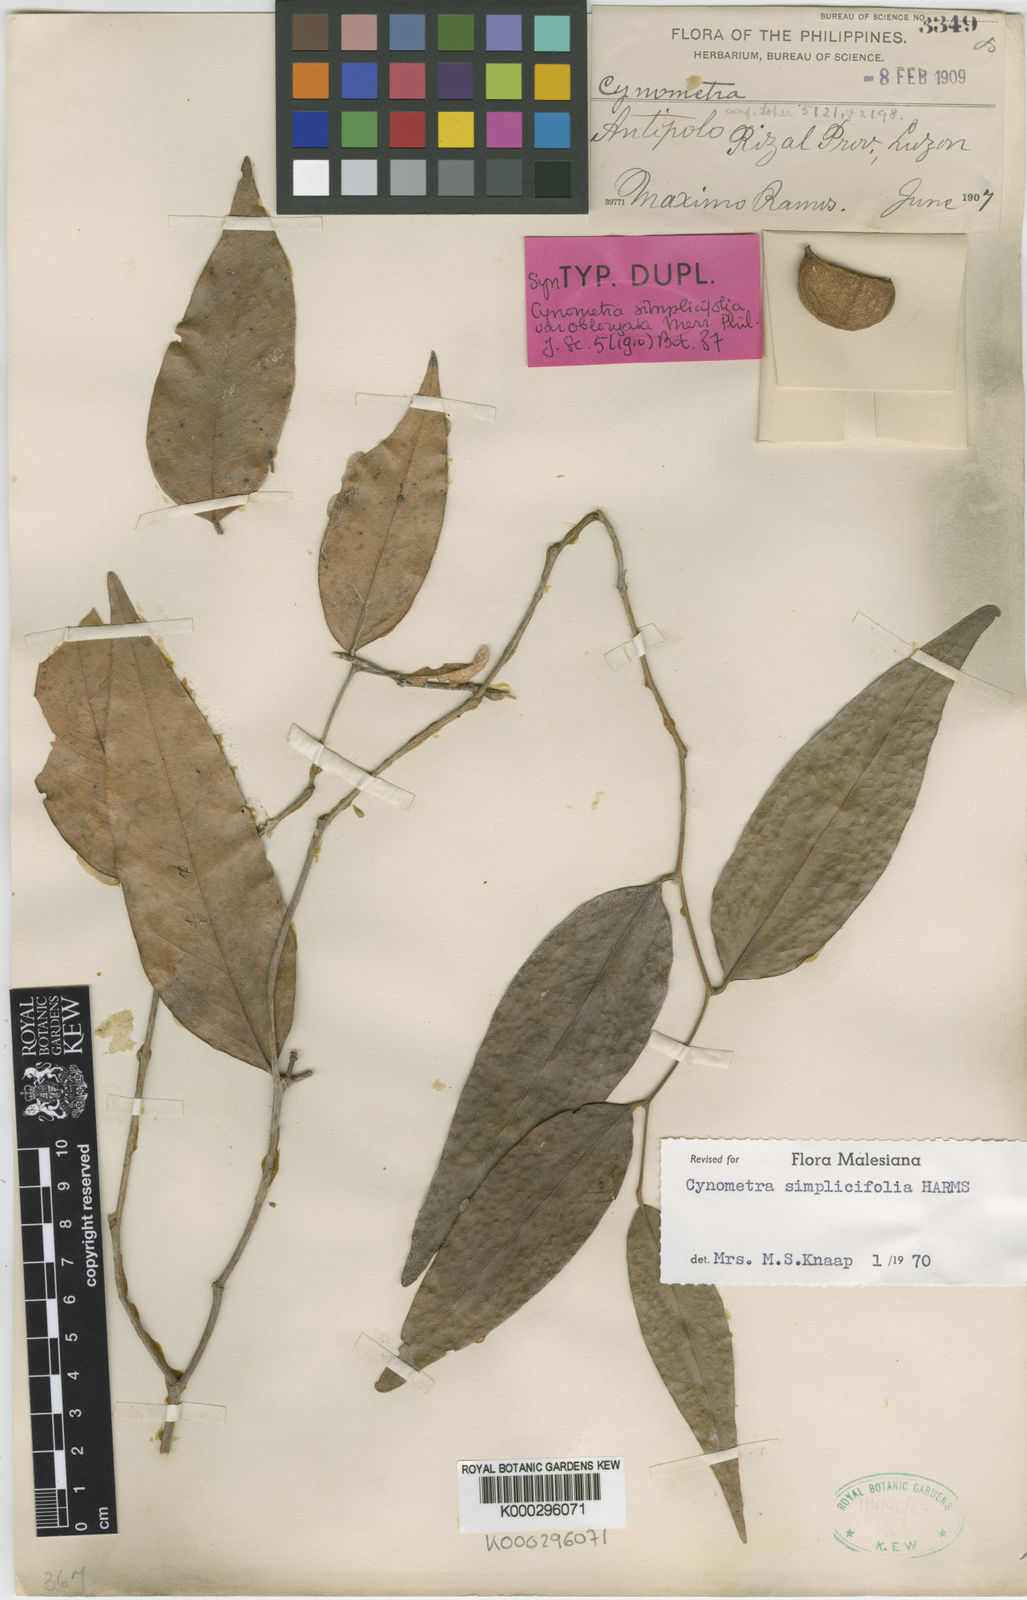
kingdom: Plantae
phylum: Tracheophyta
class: Magnoliopsida
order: Fabales
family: Fabaceae
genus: Cynometra
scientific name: Cynometra simplicifolia
